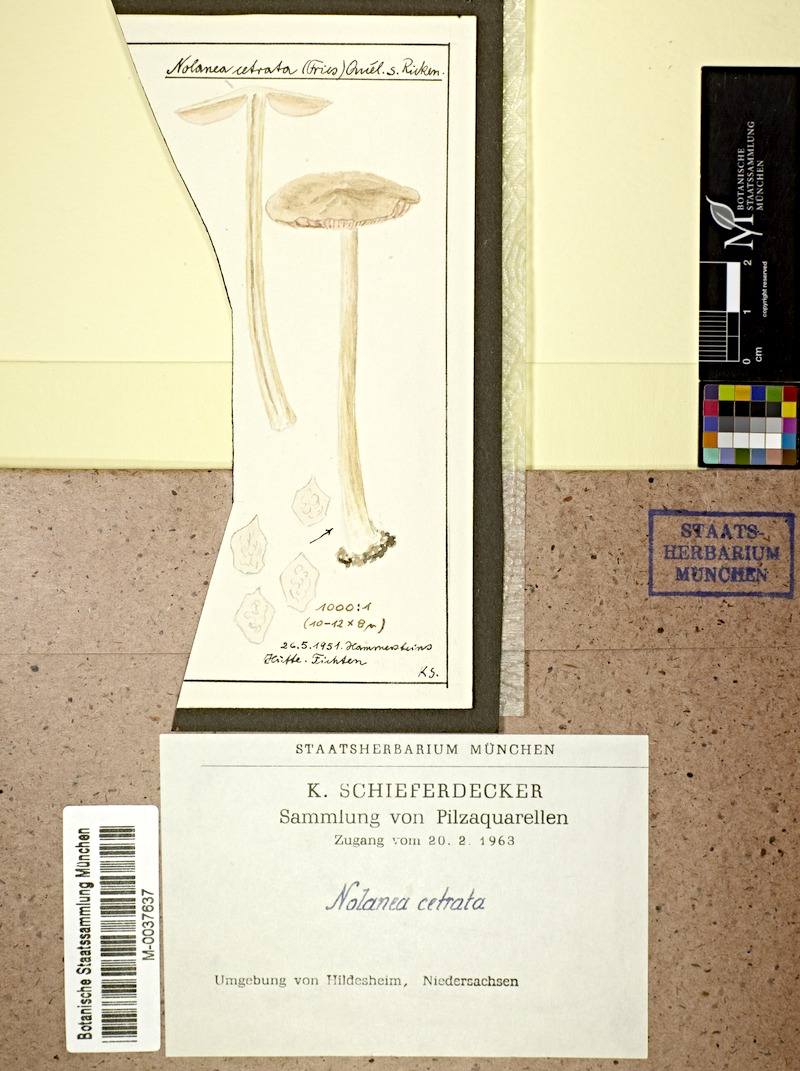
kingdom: Fungi
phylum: Basidiomycota
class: Agaricomycetes
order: Agaricales
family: Entolomataceae
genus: Entoloma
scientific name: Entoloma cetratum
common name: Honey pinkgill
